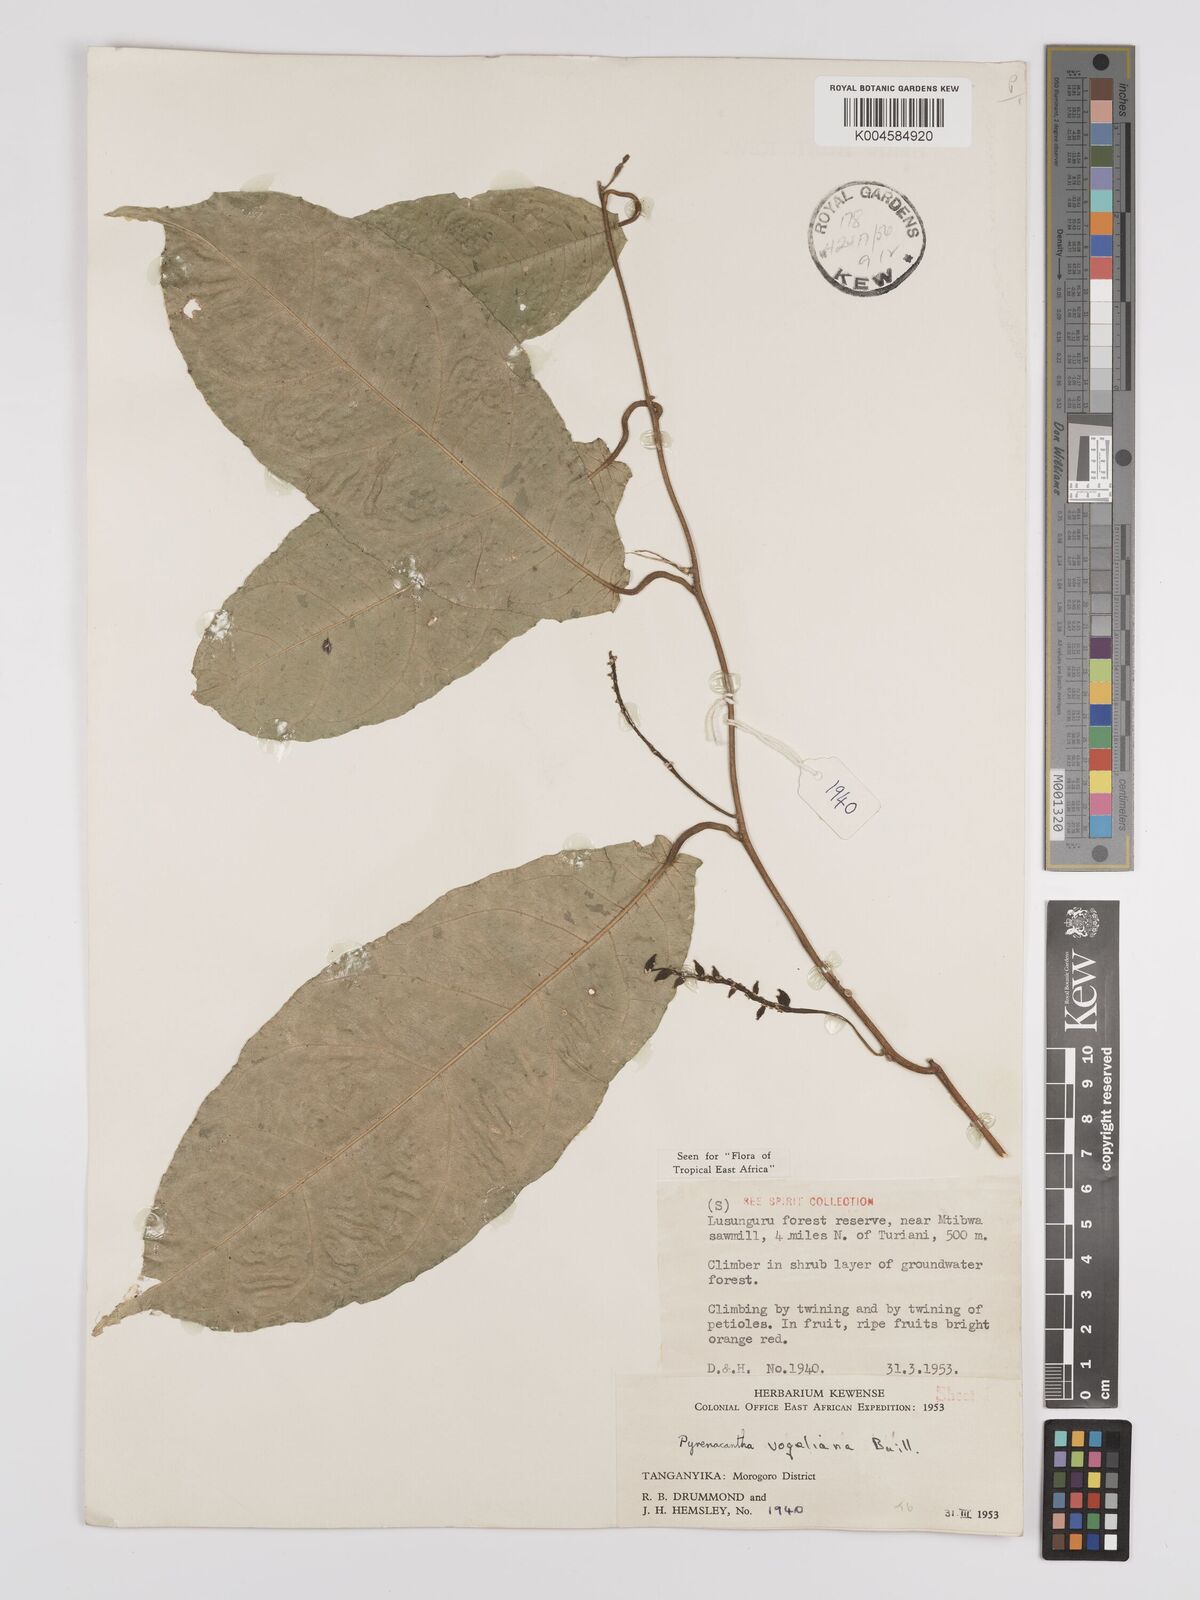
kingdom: Plantae
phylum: Tracheophyta
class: Magnoliopsida
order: Icacinales
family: Icacinaceae
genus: Pyrenacantha
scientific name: Pyrenacantha vogeliana
